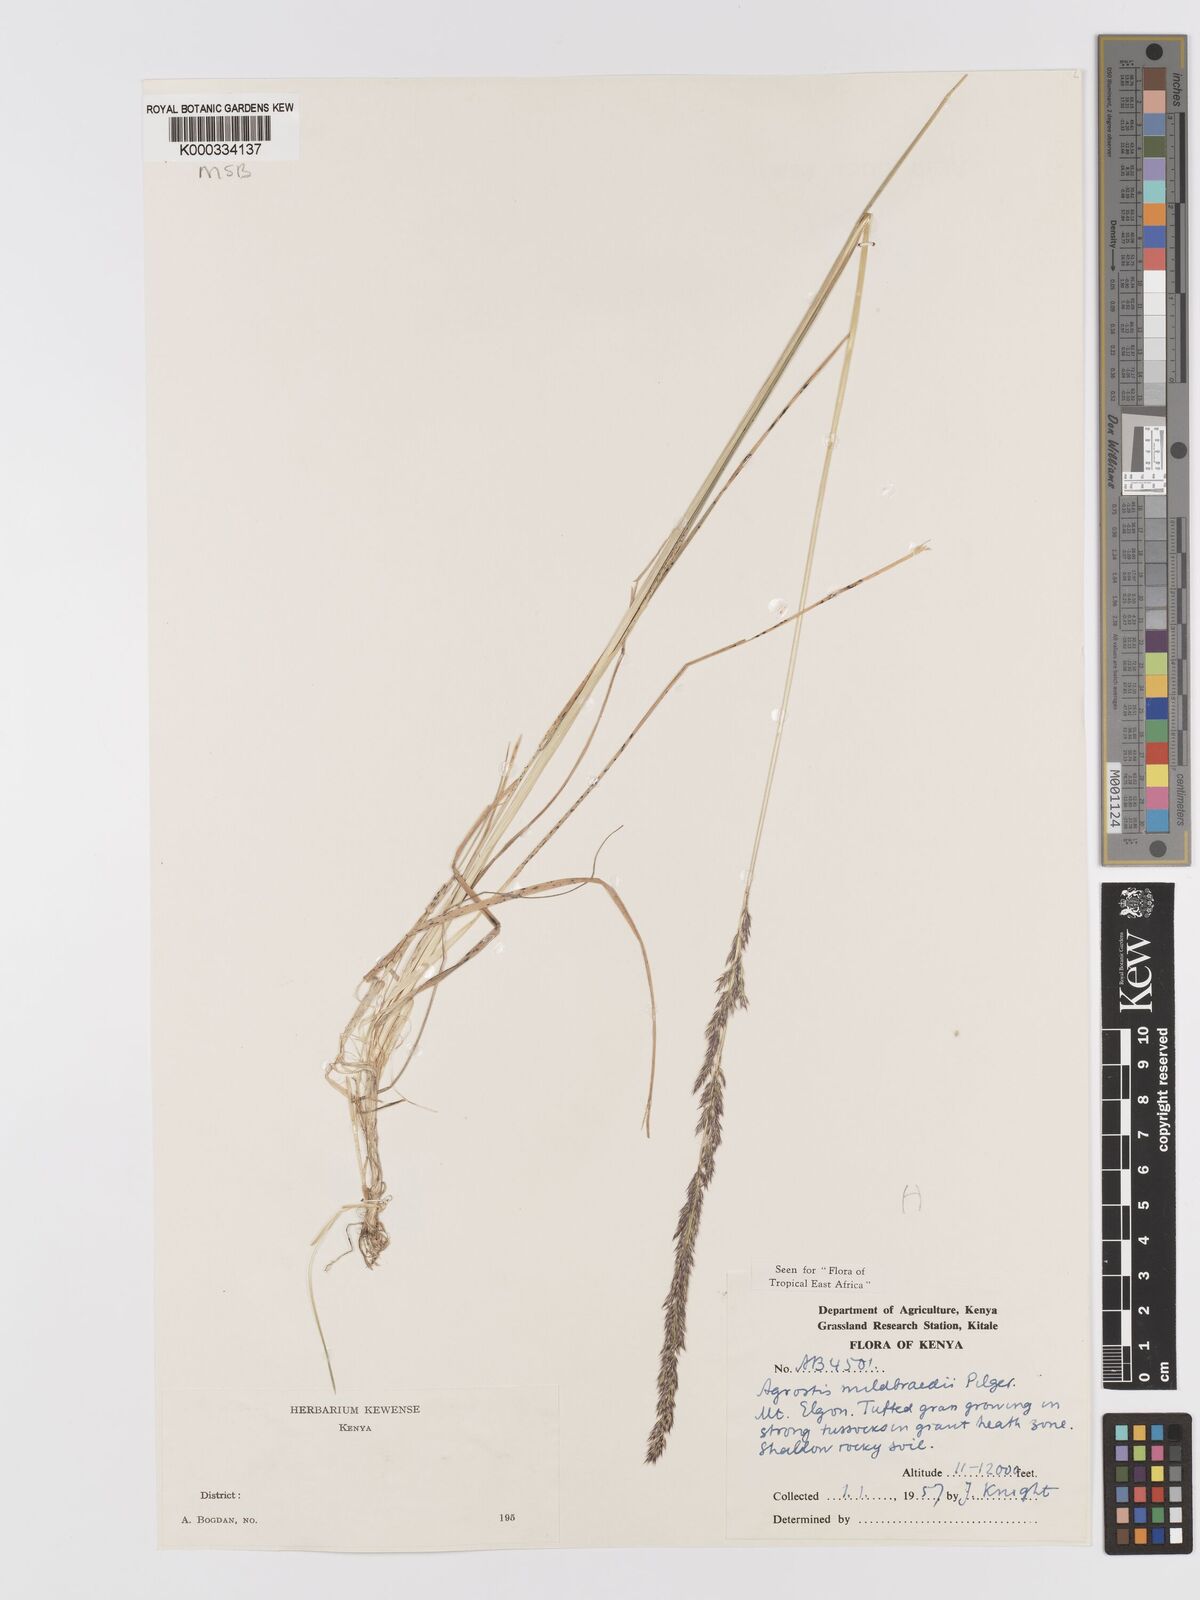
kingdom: Plantae
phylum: Tracheophyta
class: Liliopsida
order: Poales
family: Poaceae
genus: Agrostis
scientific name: Agrostis quinqueseta
